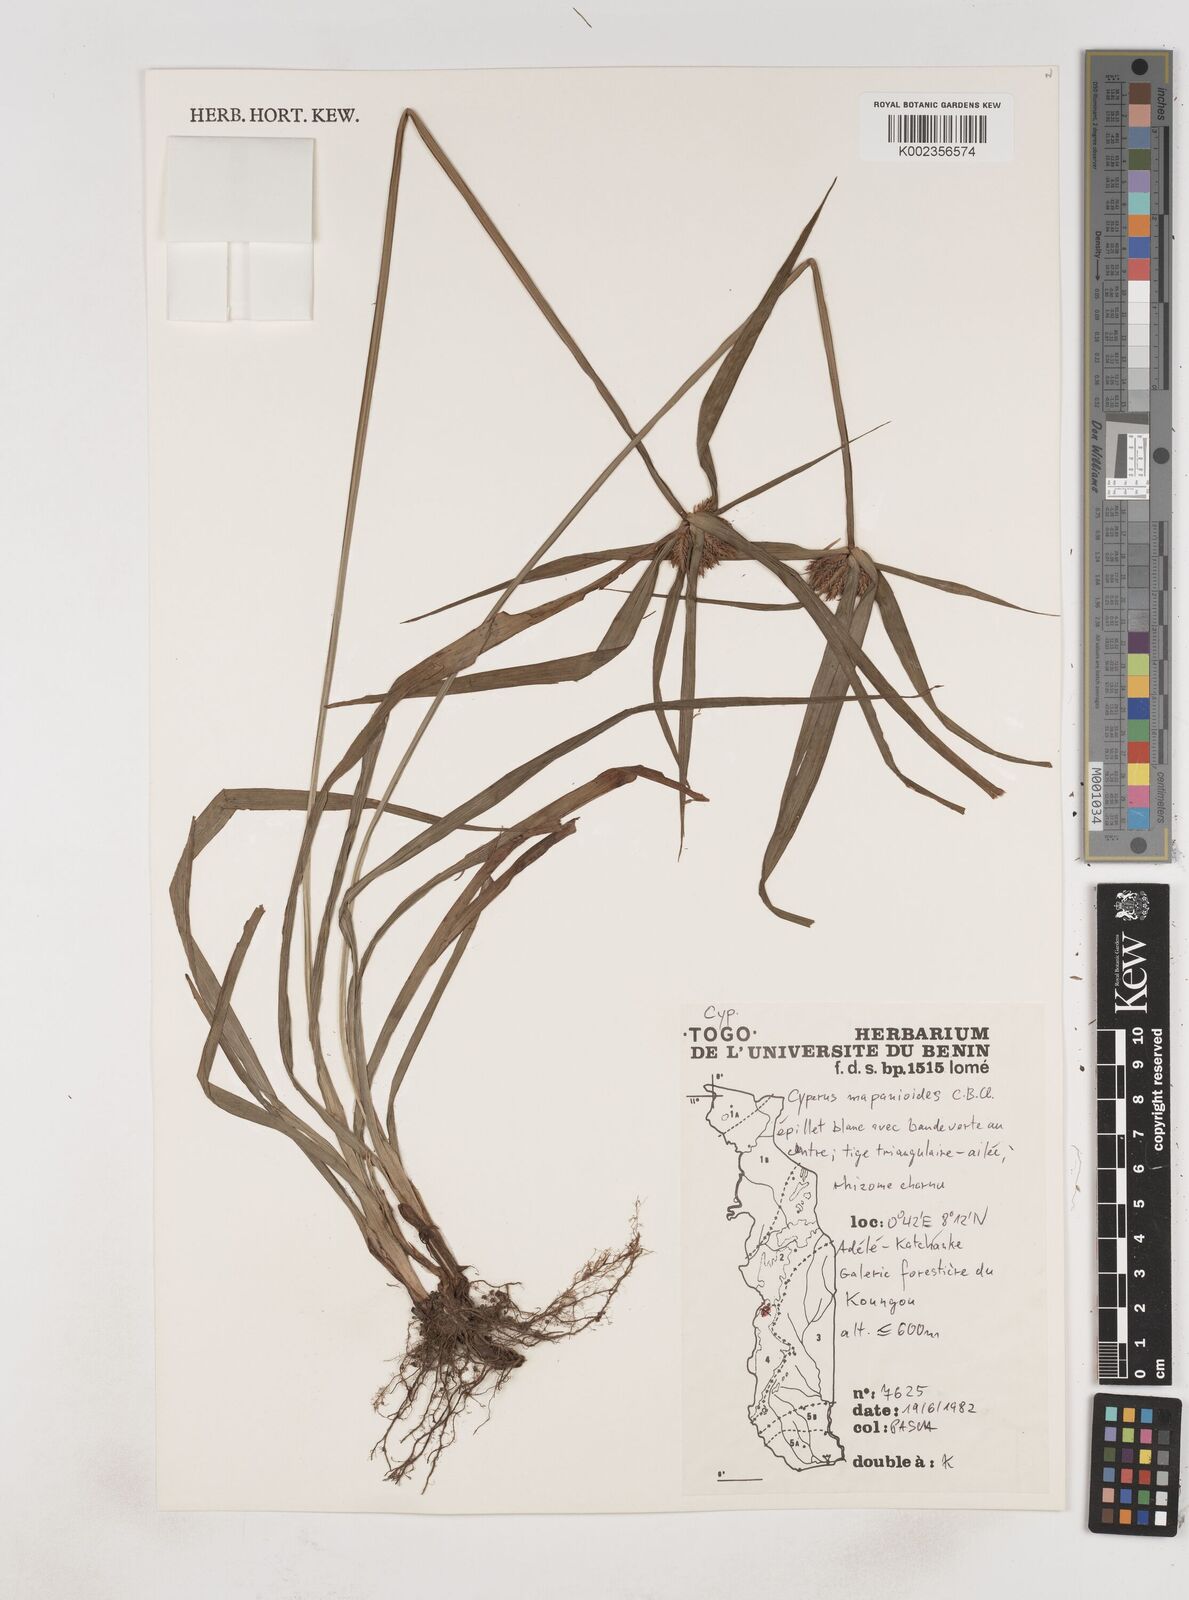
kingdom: Plantae
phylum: Tracheophyta
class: Liliopsida
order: Poales
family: Cyperaceae
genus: Cyperus
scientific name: Cyperus mapanioides
